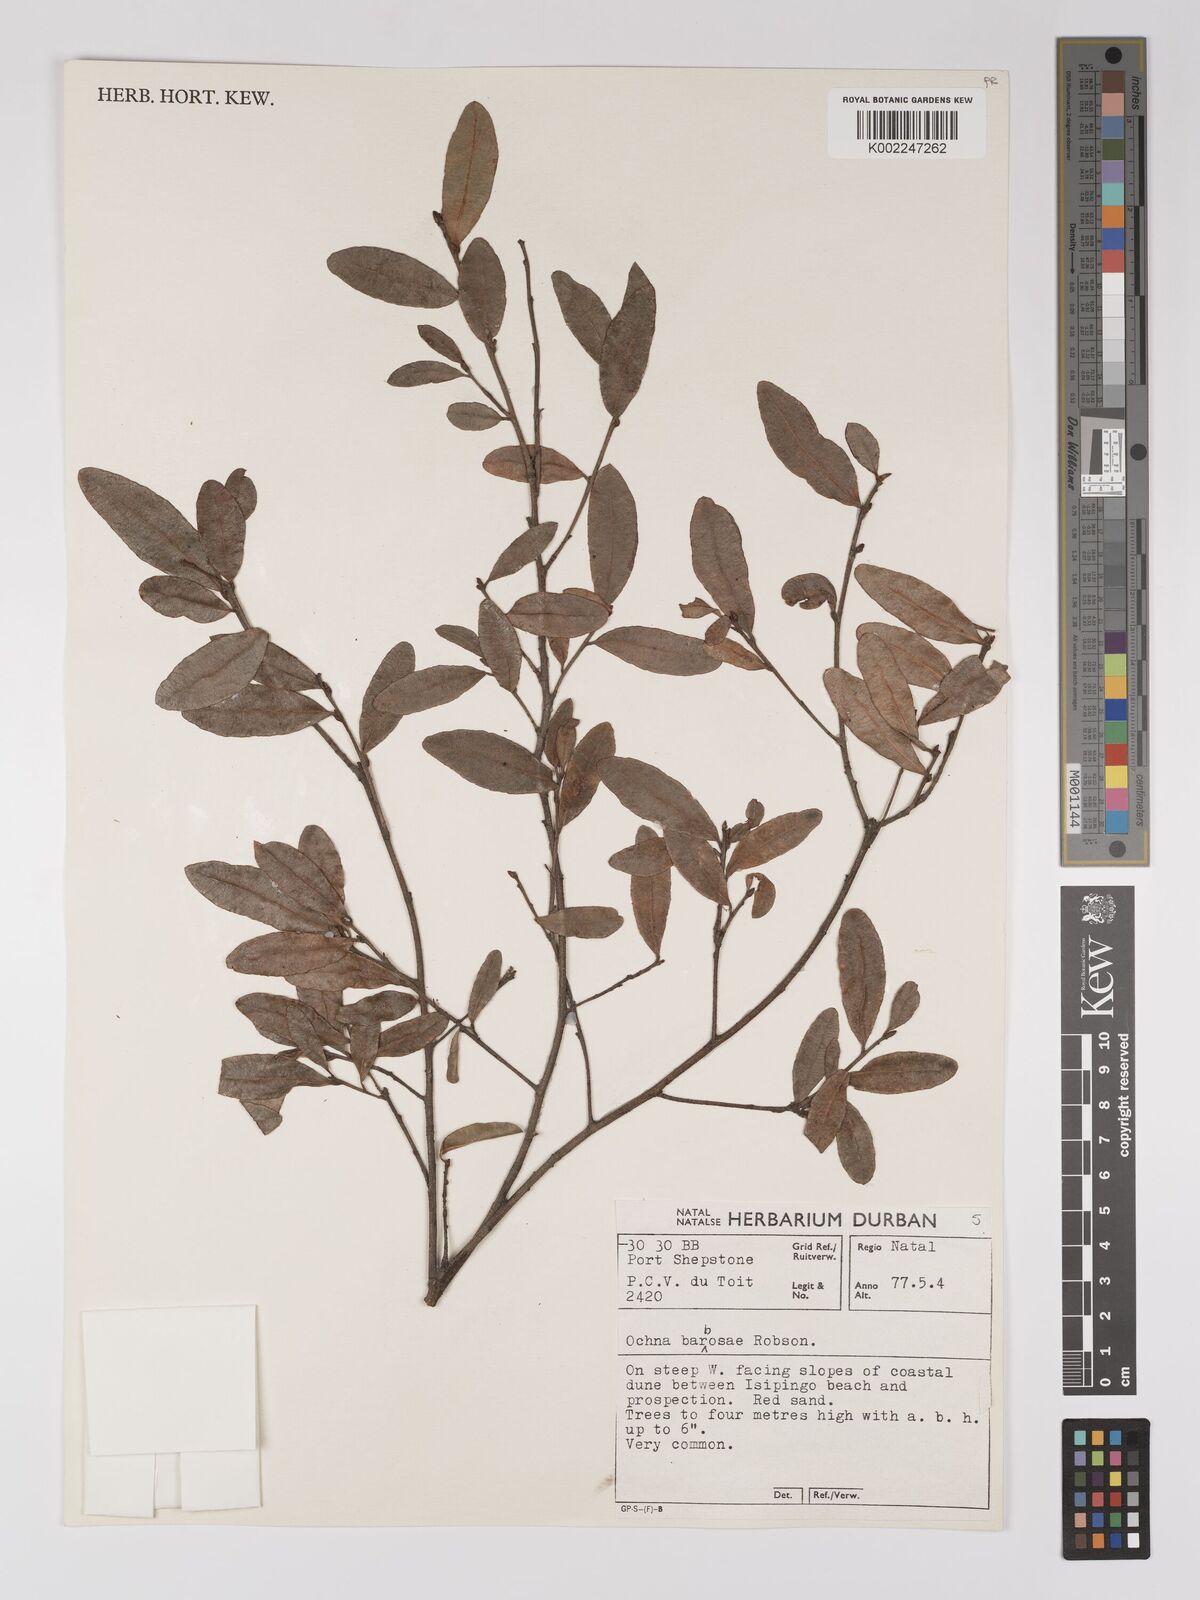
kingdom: Plantae
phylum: Tracheophyta
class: Magnoliopsida
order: Malpighiales
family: Ochnaceae
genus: Ochna
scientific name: Ochna barbosae
